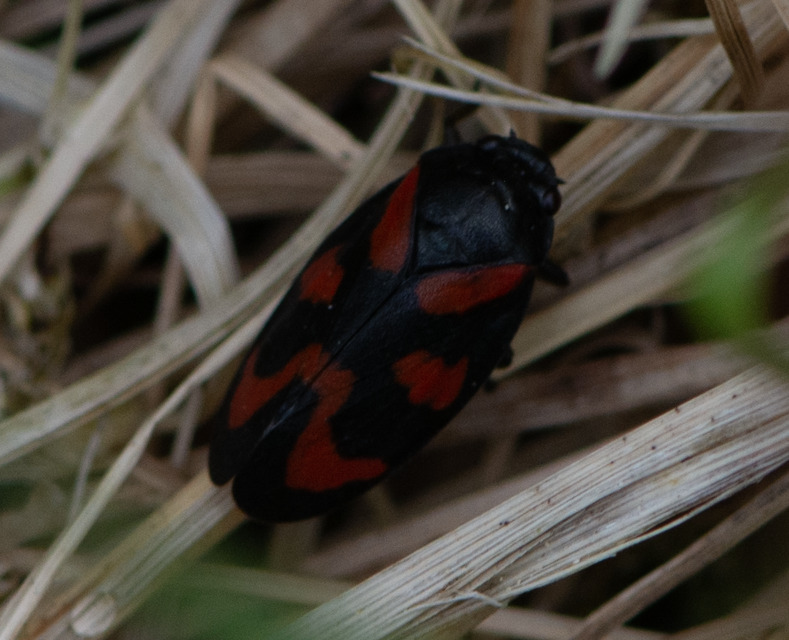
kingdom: Animalia
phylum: Arthropoda
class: Insecta
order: Hemiptera
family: Cercopidae
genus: Cercopis
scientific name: Cercopis vulnerata
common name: Blodcikade
